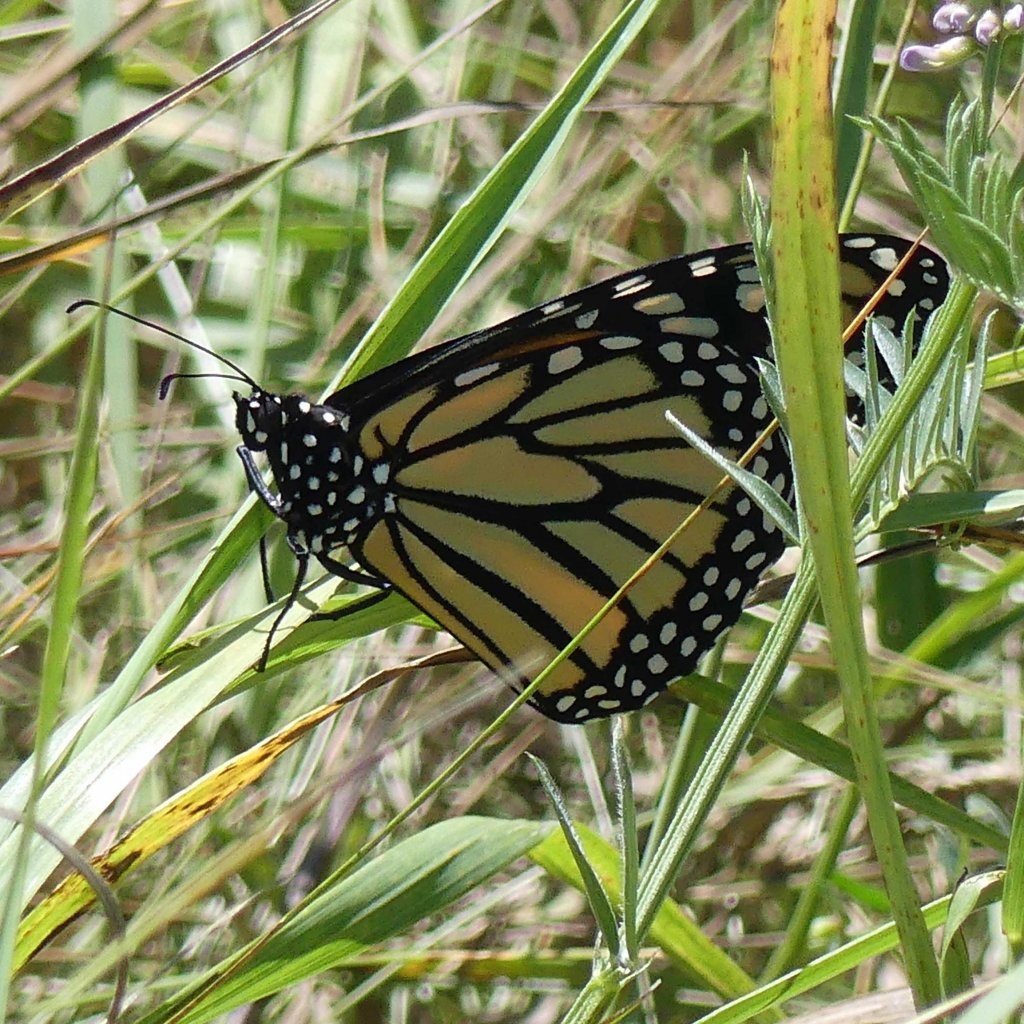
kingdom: Animalia
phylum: Arthropoda
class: Insecta
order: Lepidoptera
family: Nymphalidae
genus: Danaus
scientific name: Danaus plexippus
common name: Monarch
